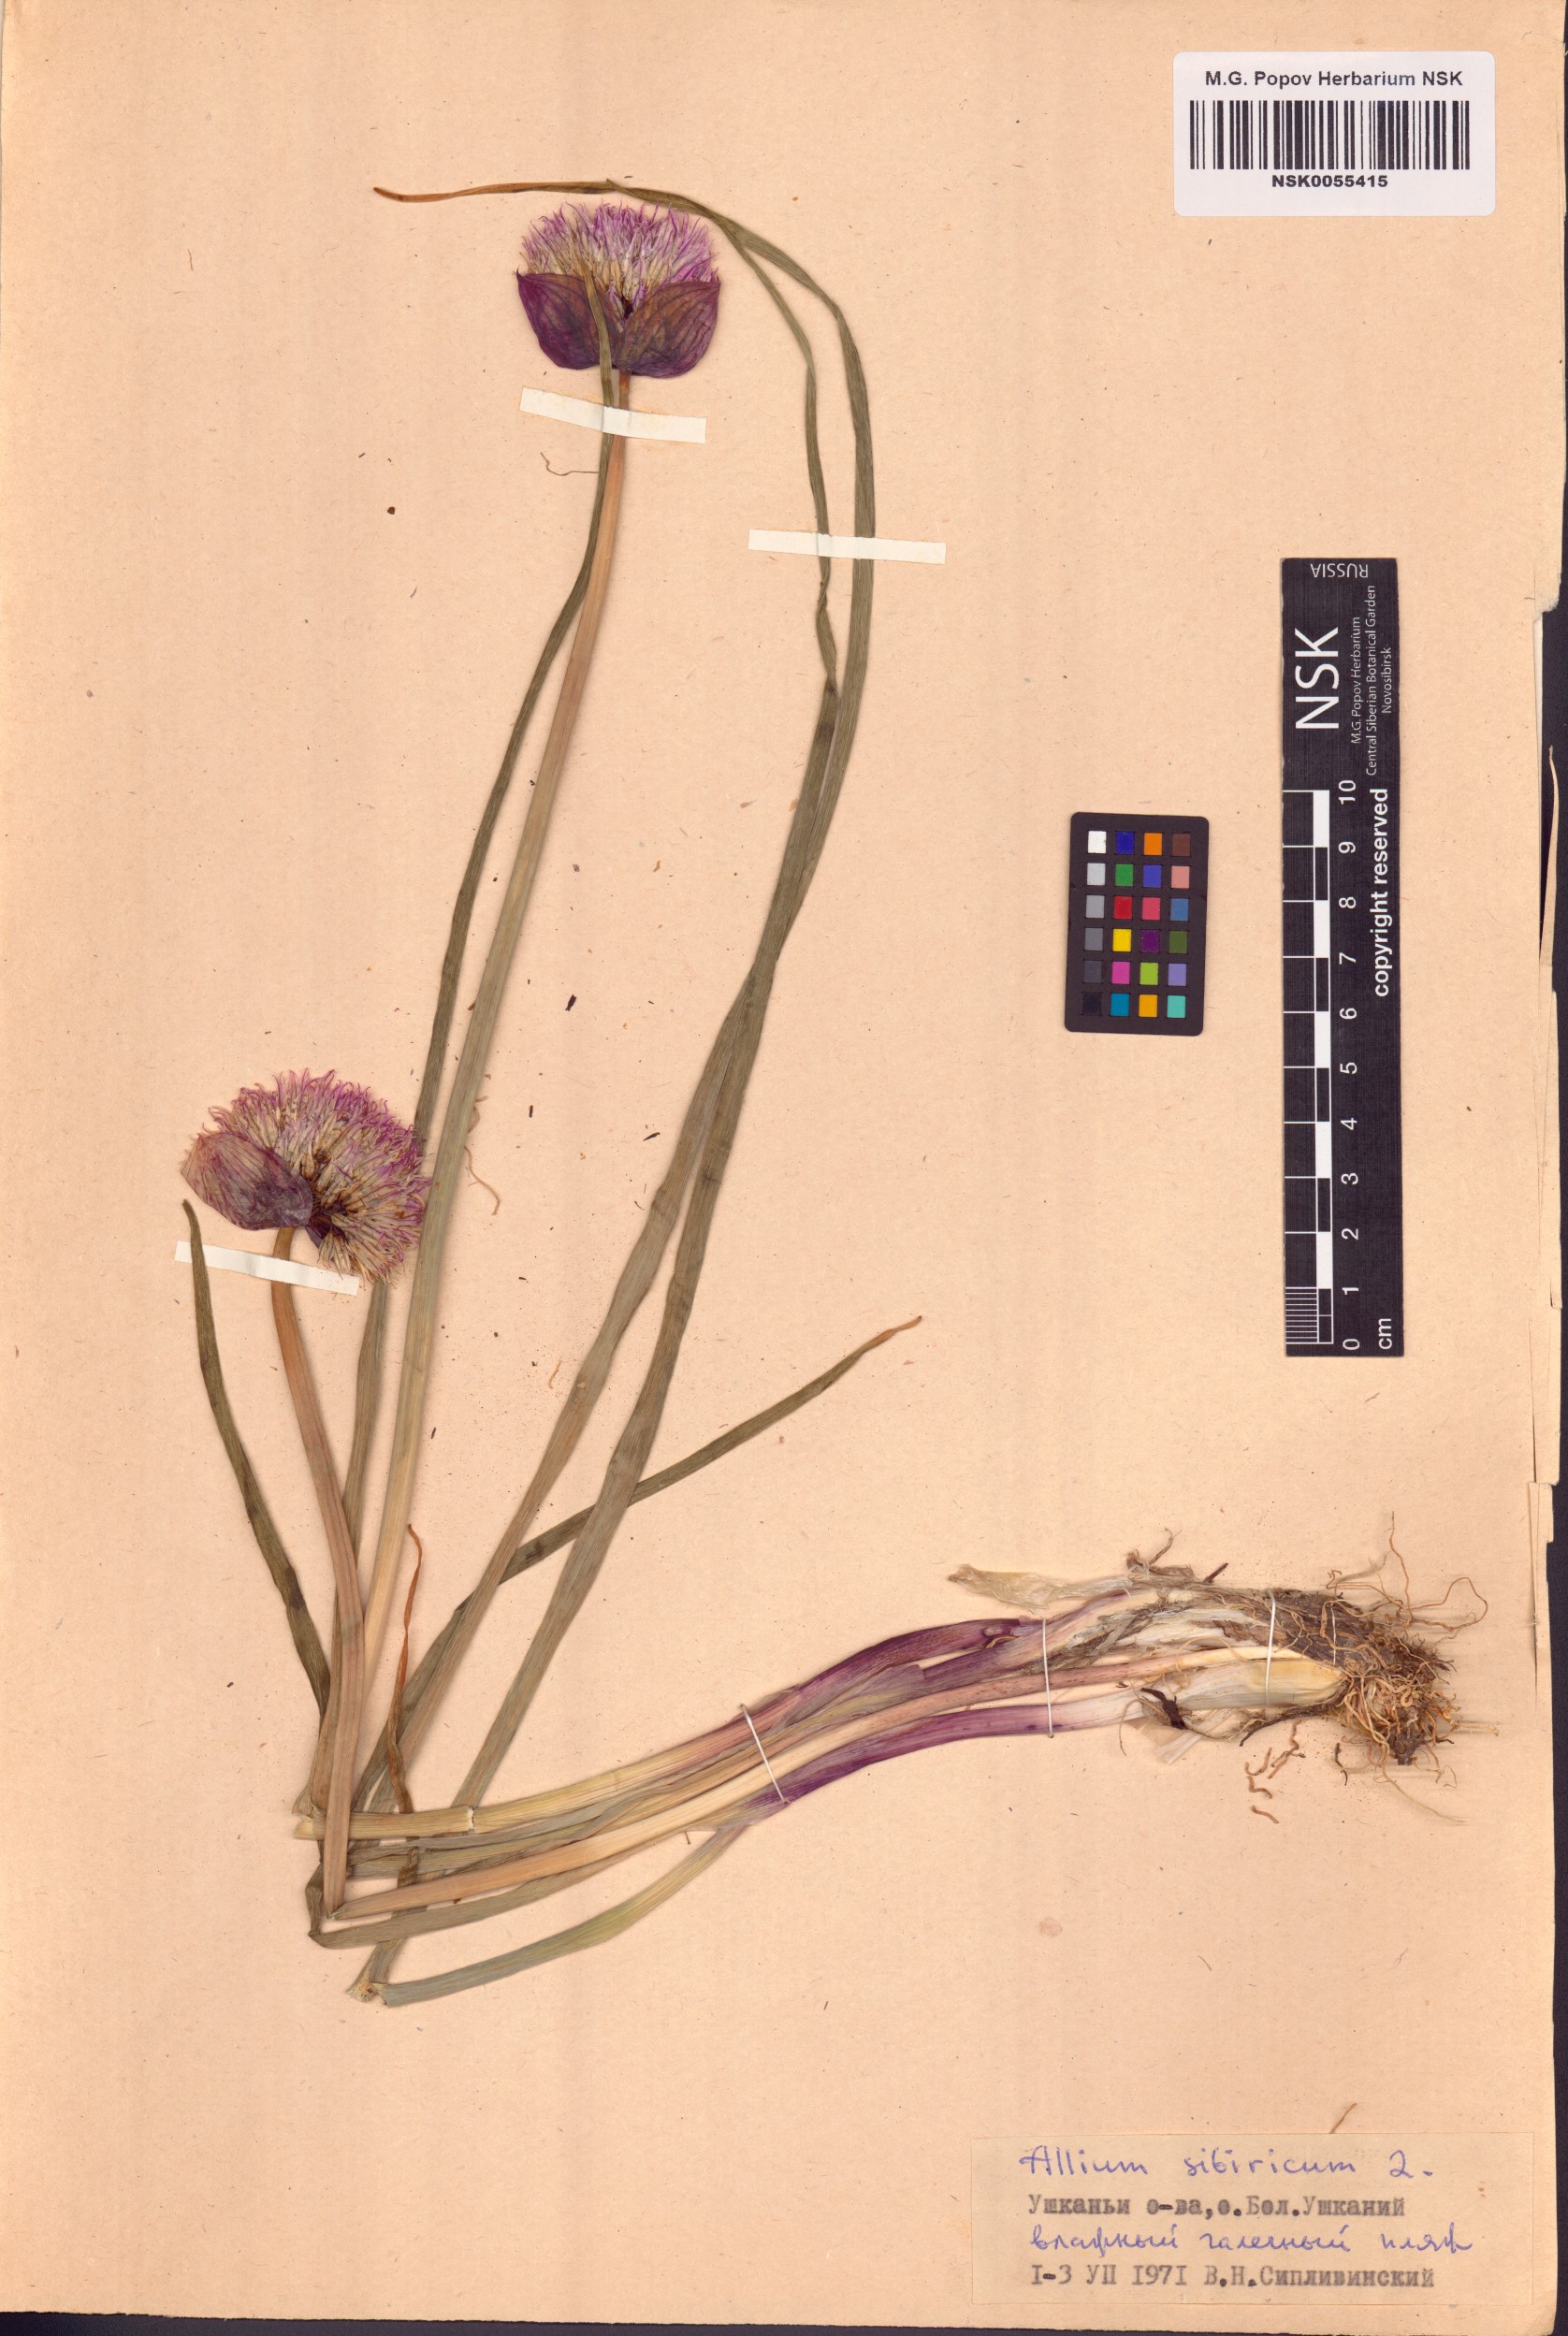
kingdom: Plantae
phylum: Tracheophyta
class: Liliopsida
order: Asparagales
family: Amaryllidaceae
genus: Allium
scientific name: Allium schoenoprasum
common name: Chives
